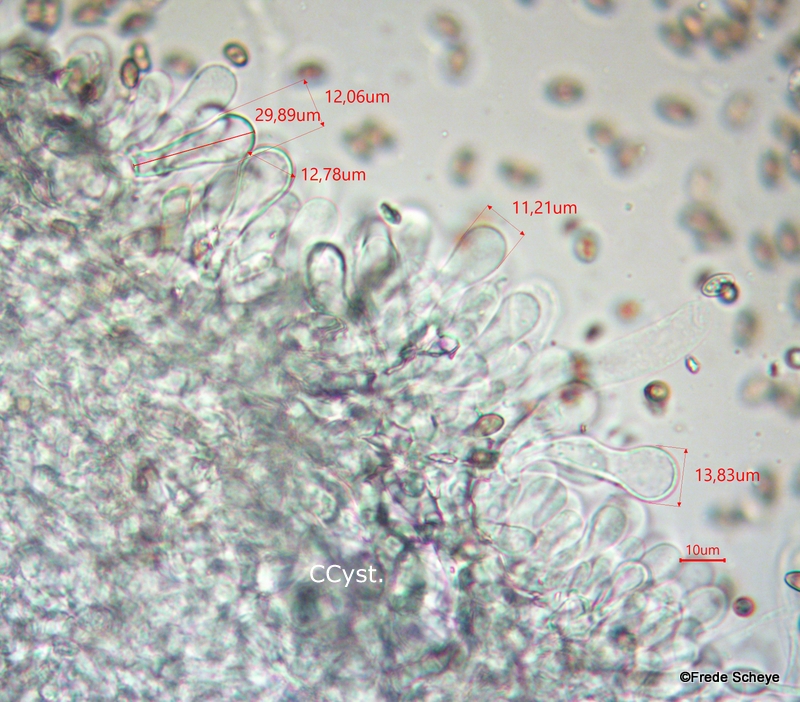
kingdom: Fungi
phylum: Basidiomycota
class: Agaricomycetes
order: Agaricales
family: Hymenogastraceae
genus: Psilocybe
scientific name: Psilocybe coronilla
